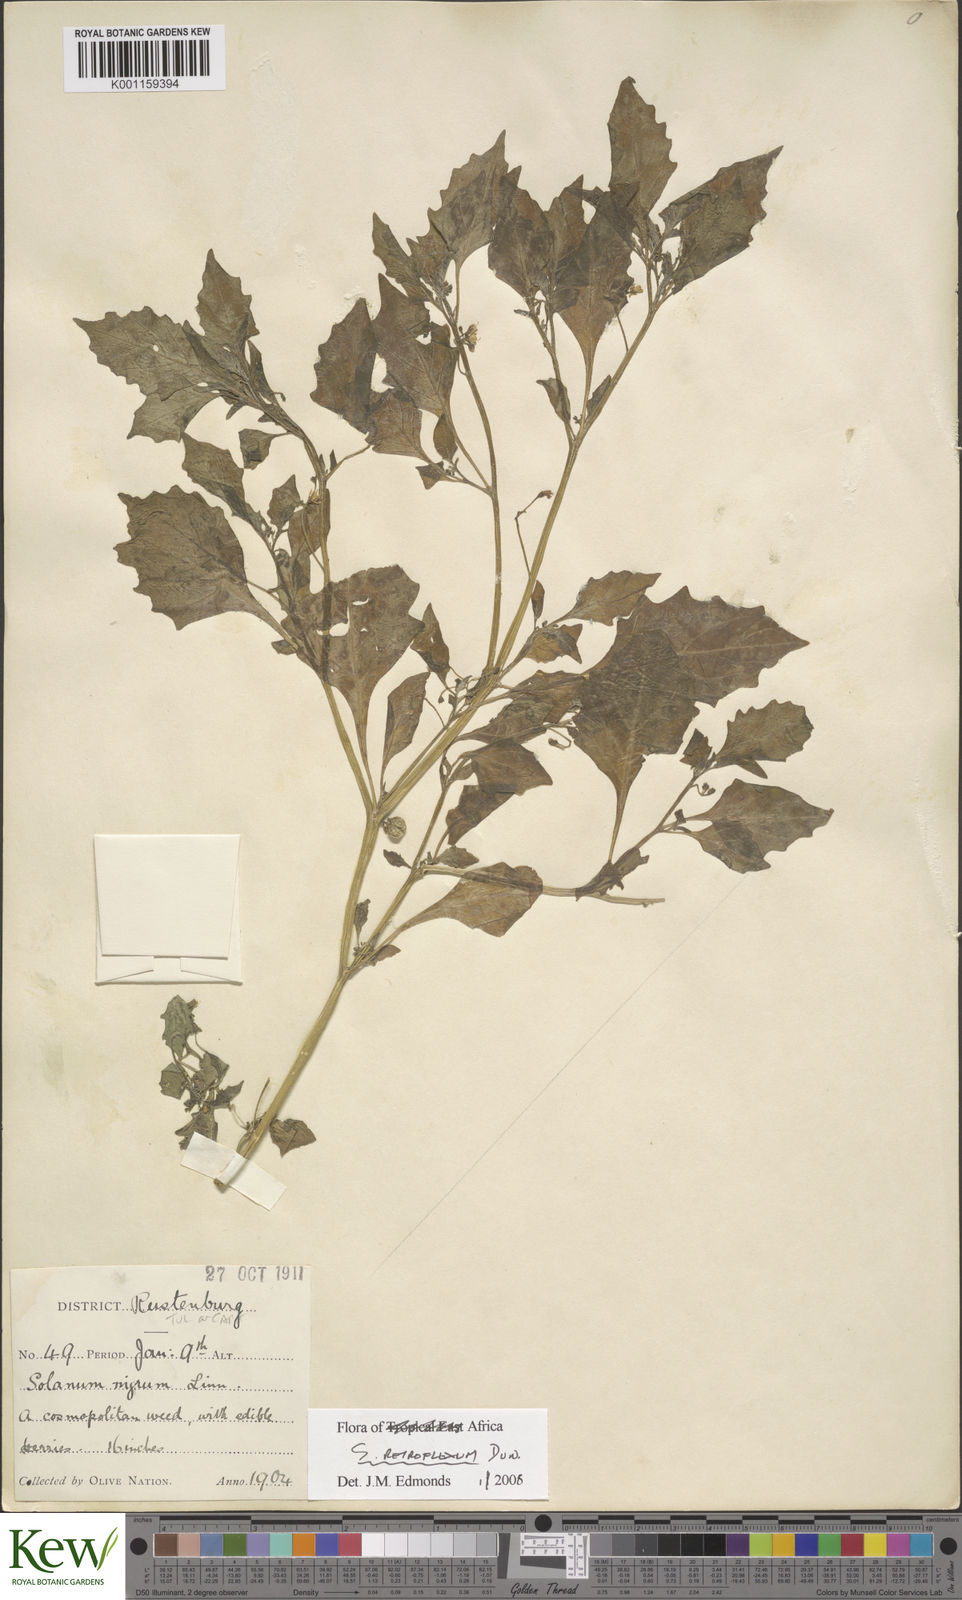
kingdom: Plantae
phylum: Tracheophyta
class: Magnoliopsida
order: Solanales
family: Solanaceae
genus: Solanum
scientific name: Solanum retroflexum
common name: Wonderberry
